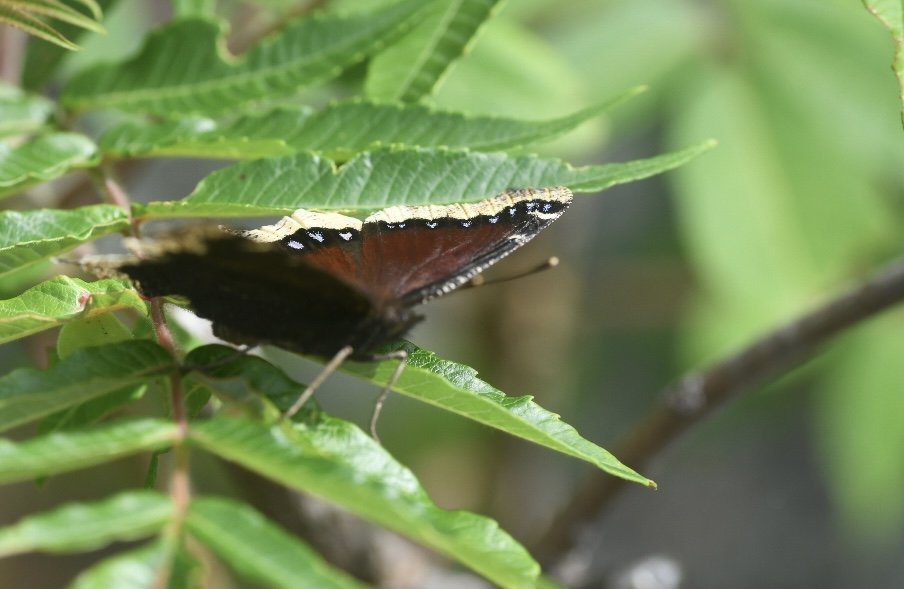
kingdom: Animalia
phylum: Arthropoda
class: Insecta
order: Lepidoptera
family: Nymphalidae
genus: Nymphalis
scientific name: Nymphalis antiopa
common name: Mourning Cloak
